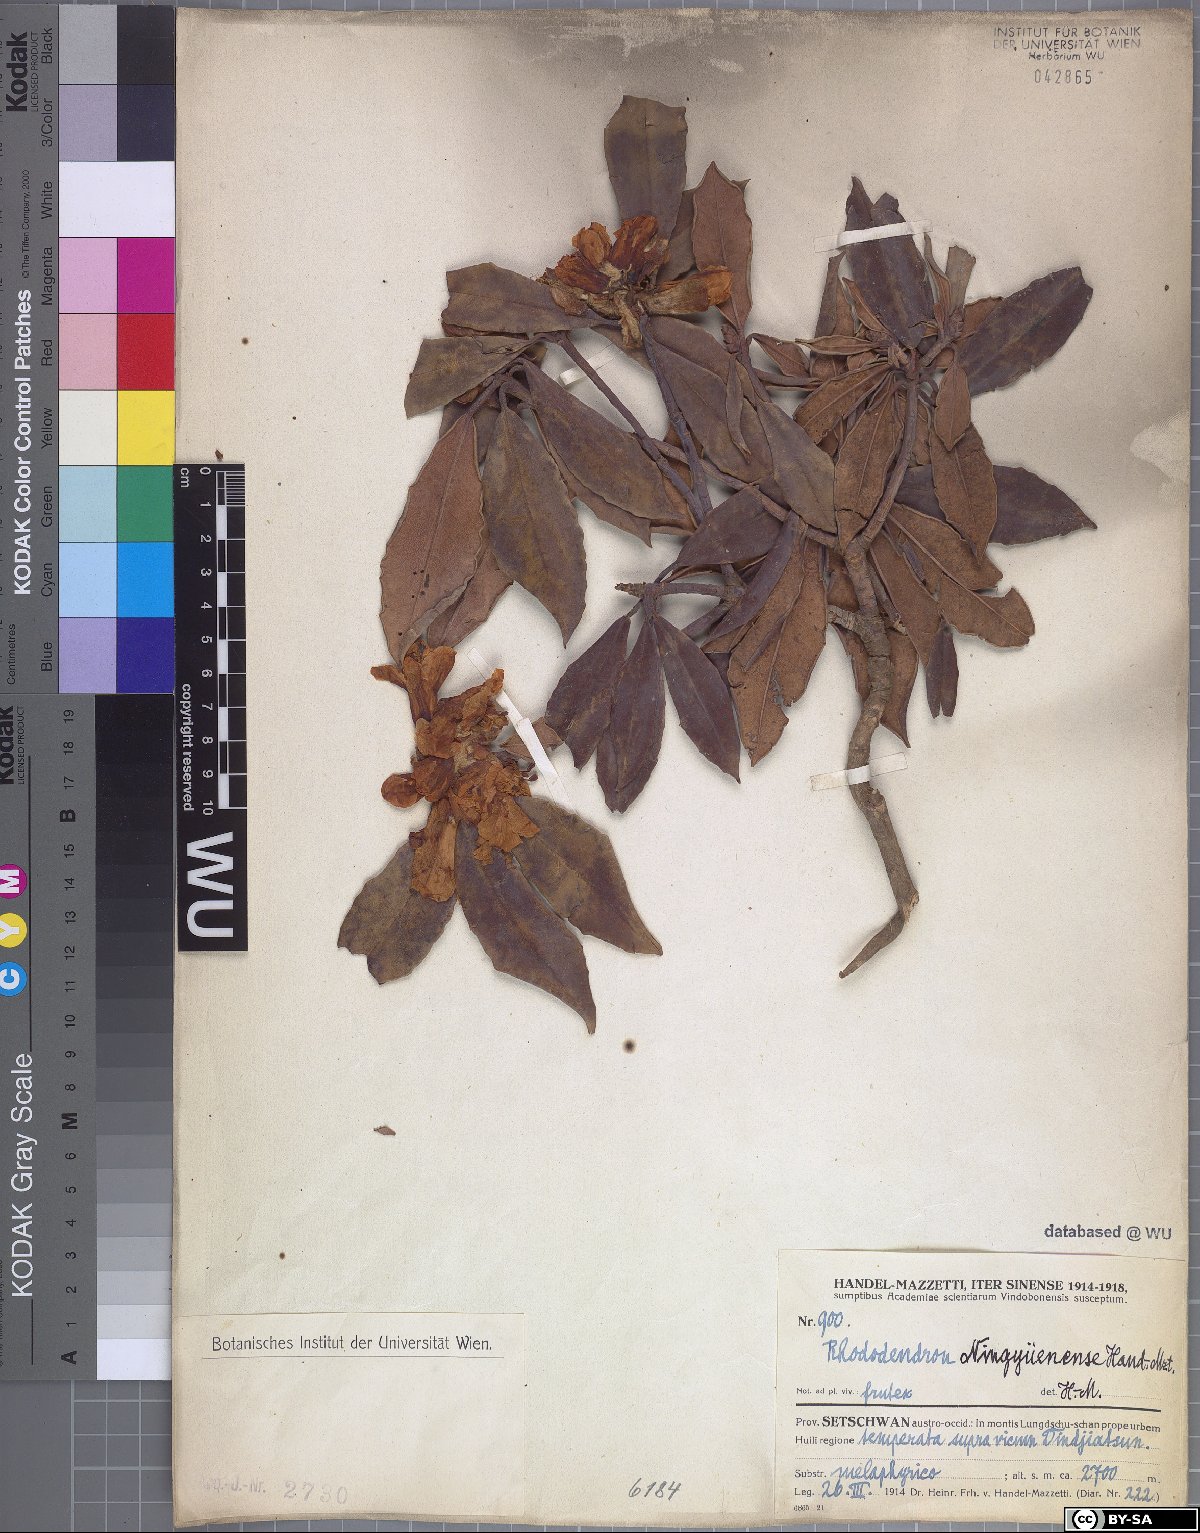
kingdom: Plantae
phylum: Tracheophyta
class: Magnoliopsida
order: Ericales
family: Ericaceae
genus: Rhododendron
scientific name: Rhododendron irroratum
